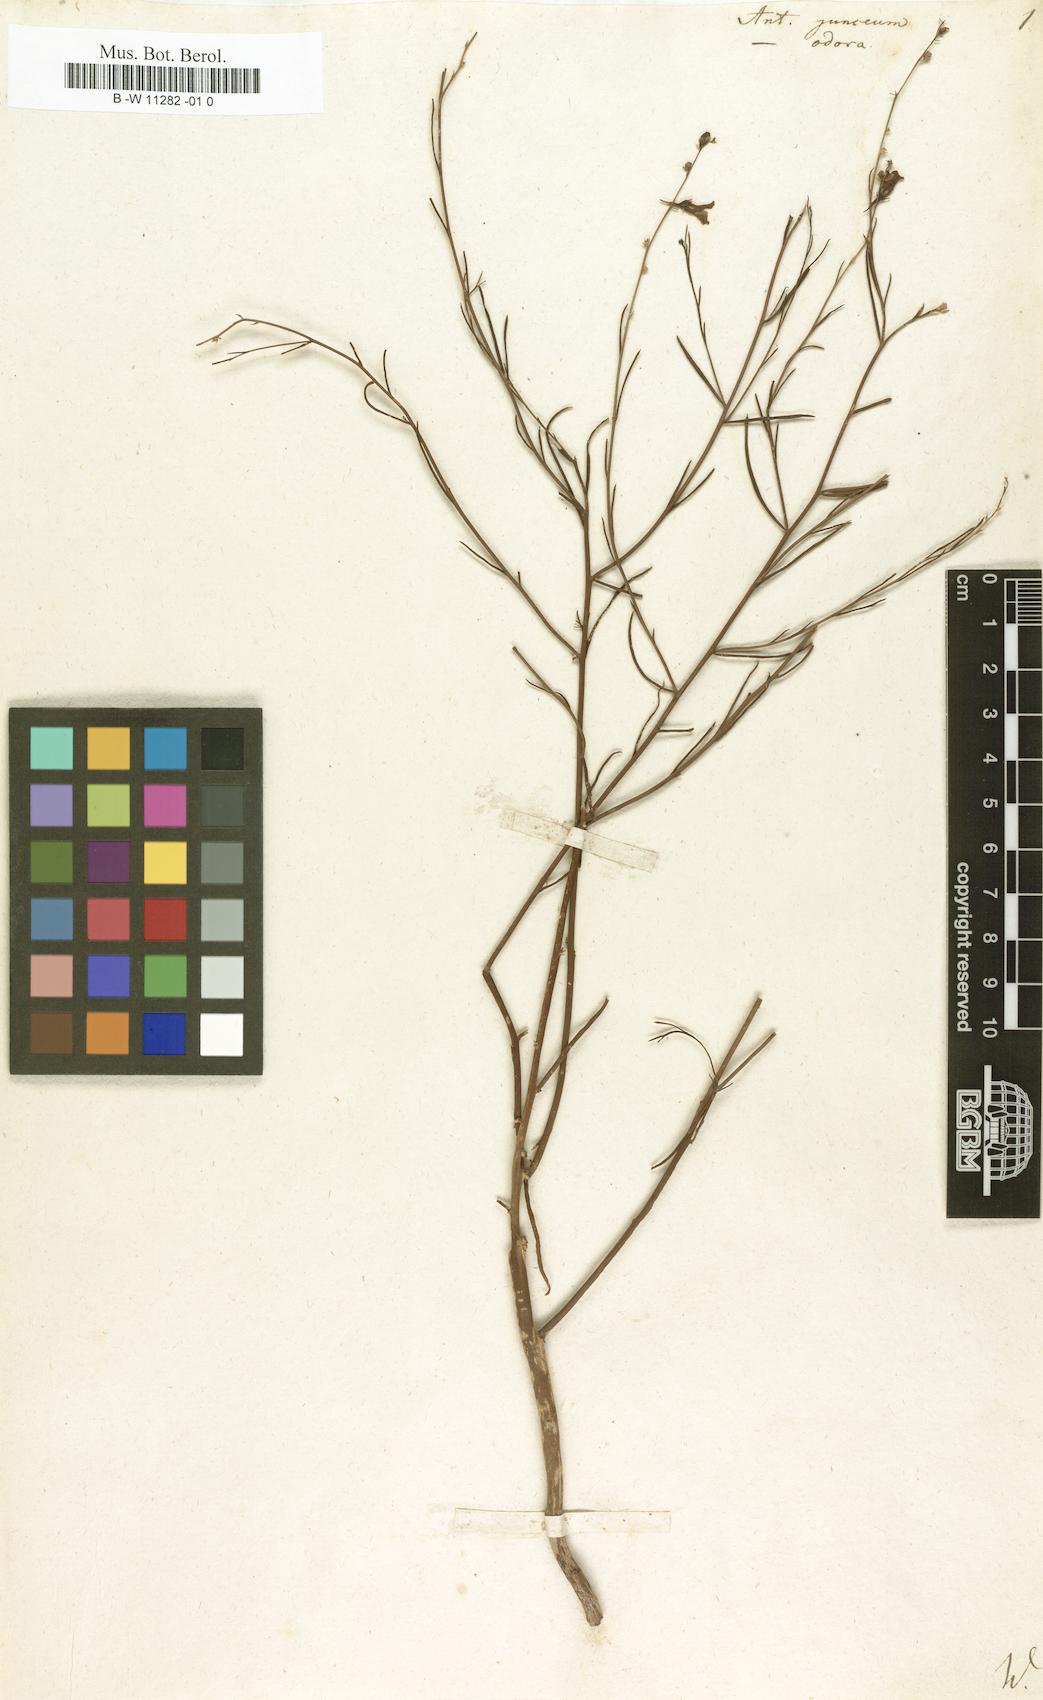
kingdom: Plantae
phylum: Tracheophyta
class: Magnoliopsida
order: Lamiales
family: Plantaginaceae
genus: Linaria
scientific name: Linaria odora
